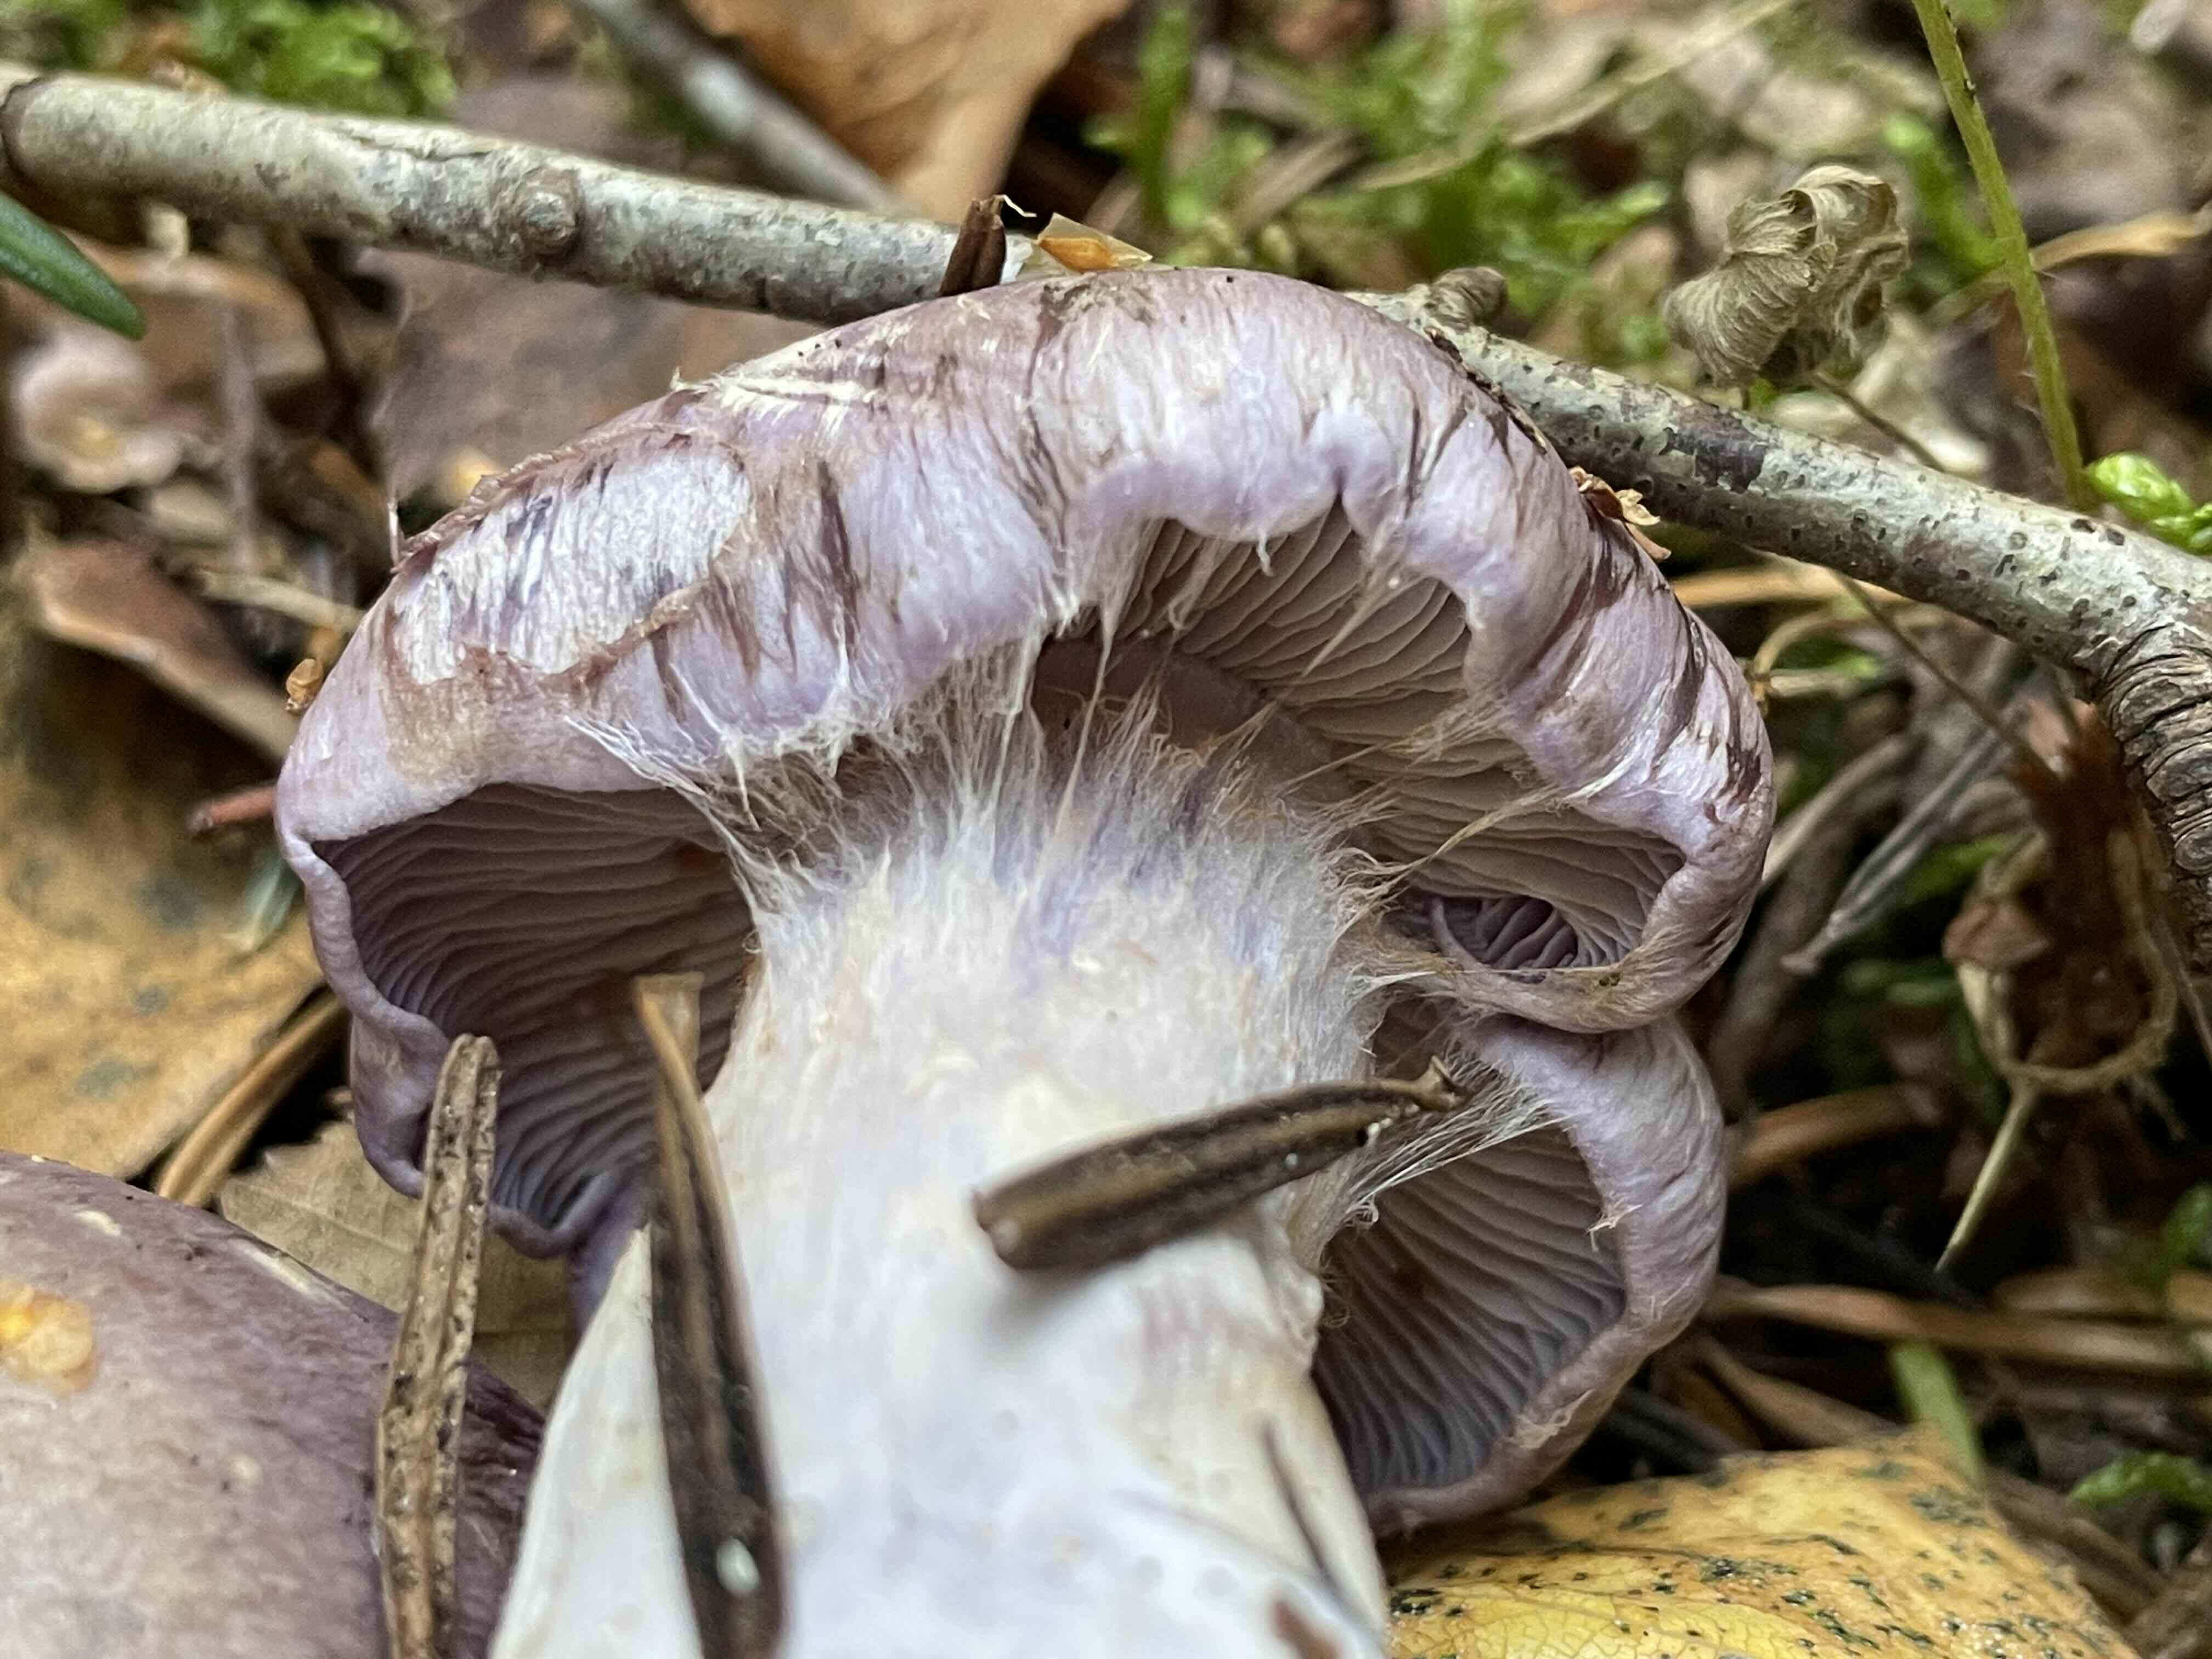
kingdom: Fungi
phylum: Basidiomycota
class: Agaricomycetes
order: Agaricales
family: Cortinariaceae
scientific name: Cortinariaceae
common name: slørhatfamilien
